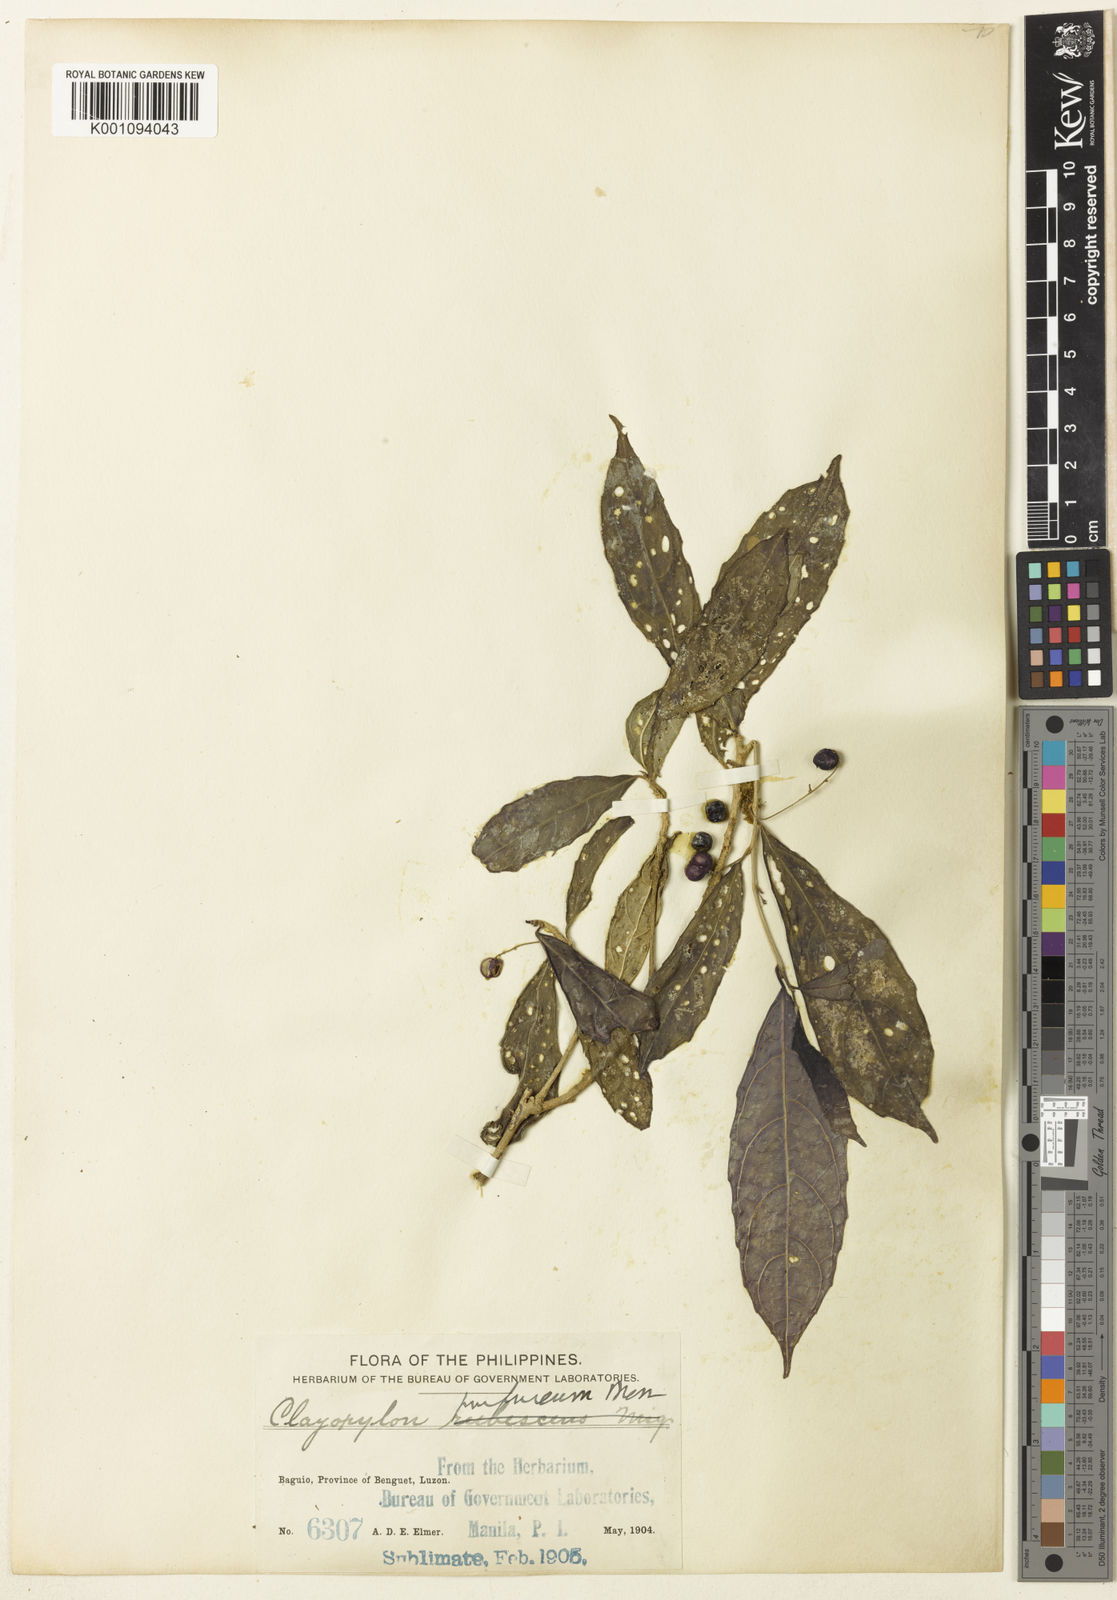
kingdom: Plantae
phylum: Tracheophyta
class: Magnoliopsida
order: Malpighiales
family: Euphorbiaceae
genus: Claoxylon
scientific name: Claoxylon purpureum
